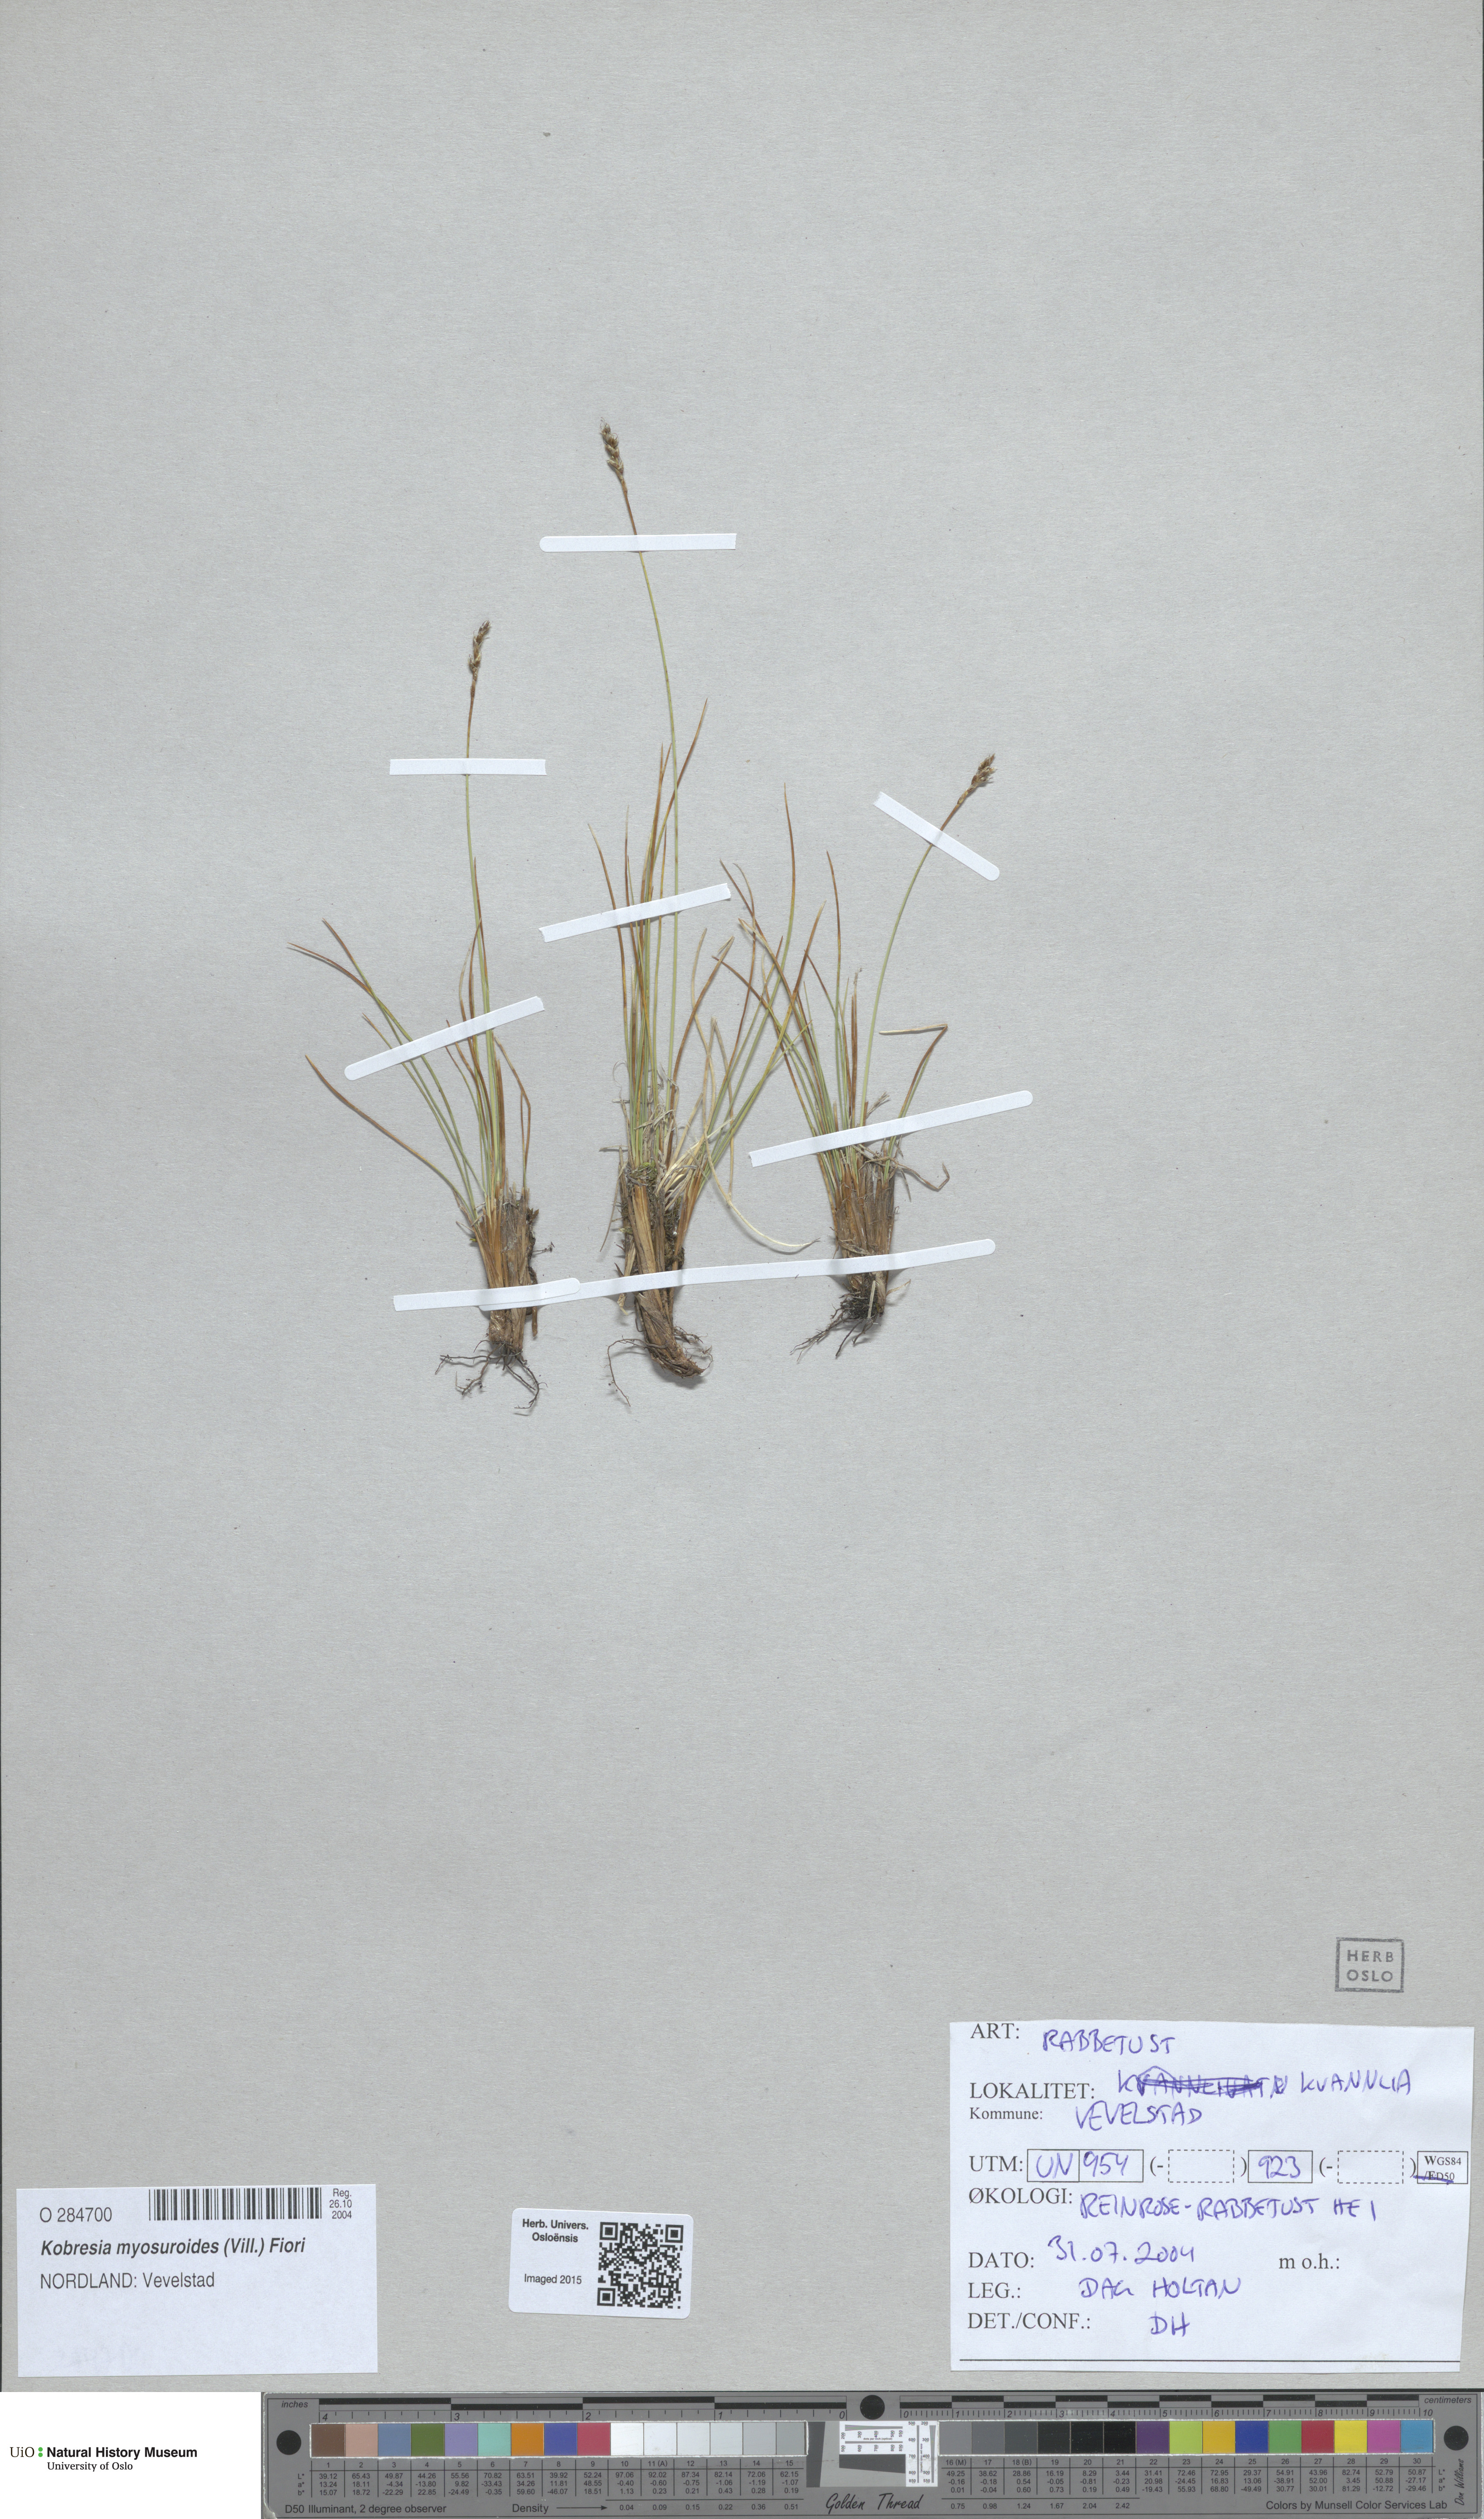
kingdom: Plantae
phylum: Tracheophyta
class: Liliopsida
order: Poales
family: Cyperaceae
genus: Carex
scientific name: Carex myosuroides
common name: Bellard's bog sedge
